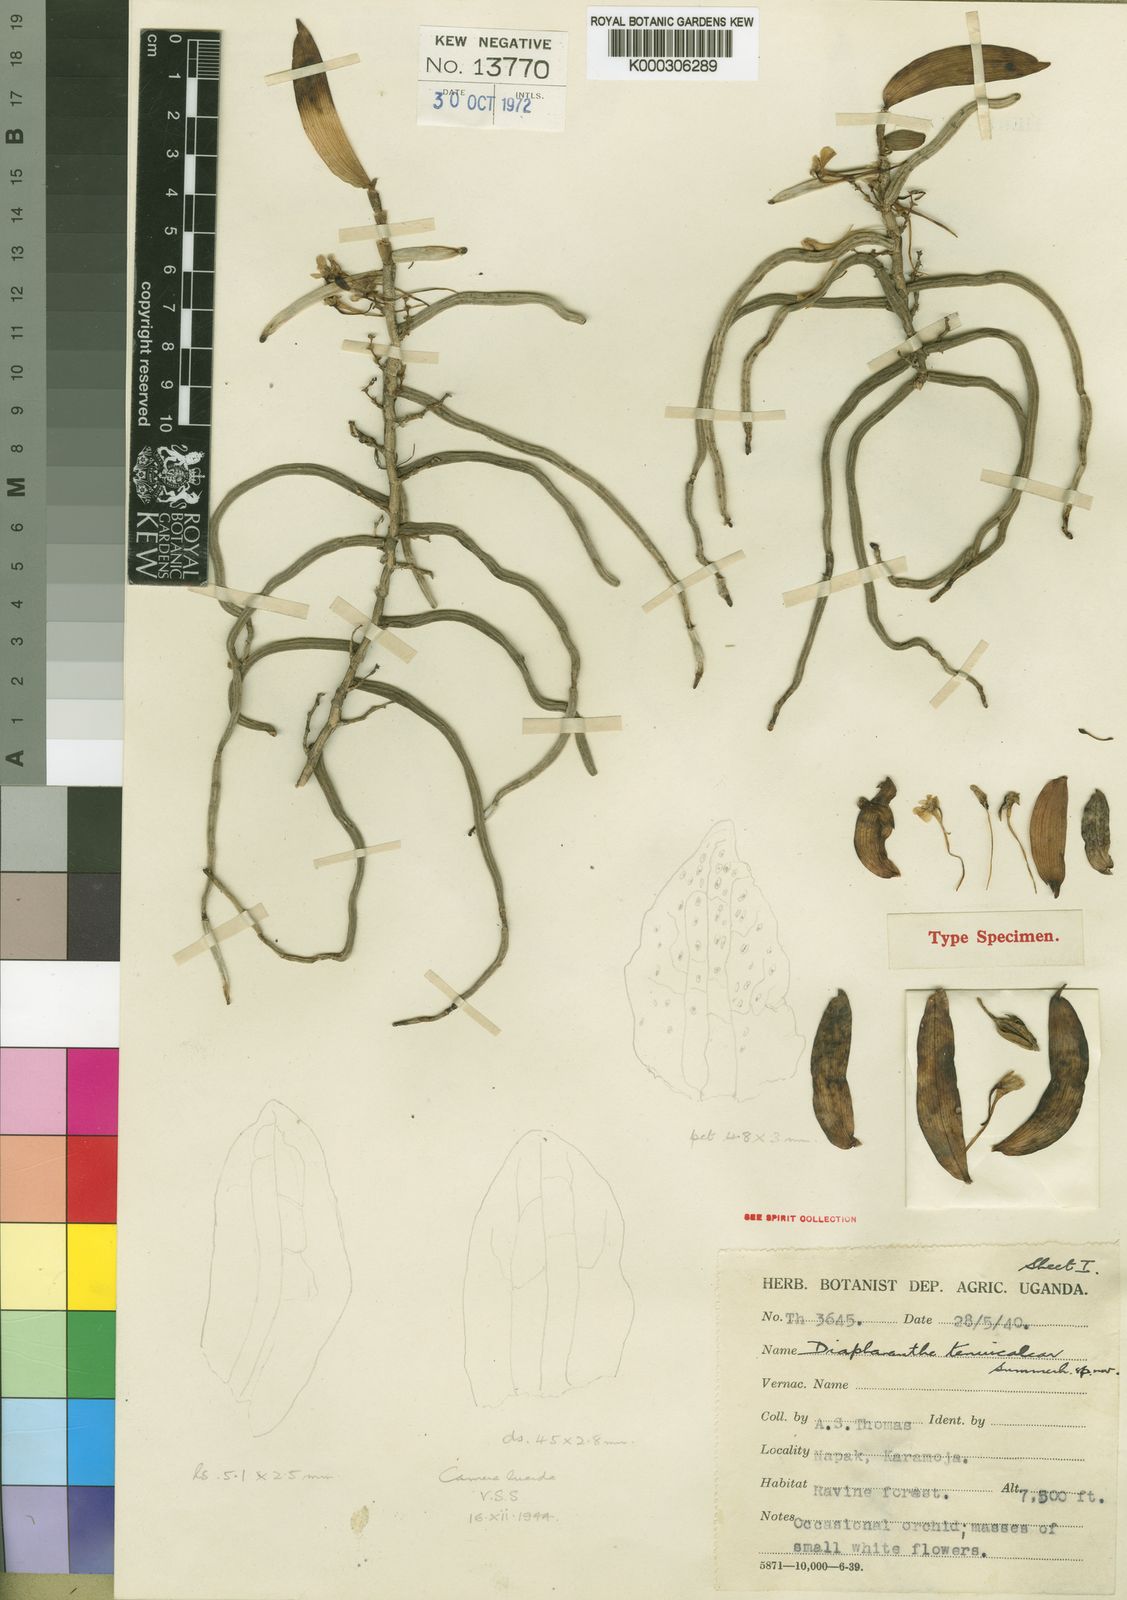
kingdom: Plantae
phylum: Tracheophyta
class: Liliopsida
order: Asparagales
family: Orchidaceae
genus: Rhipidoglossum
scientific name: Rhipidoglossum tenuicalcar
